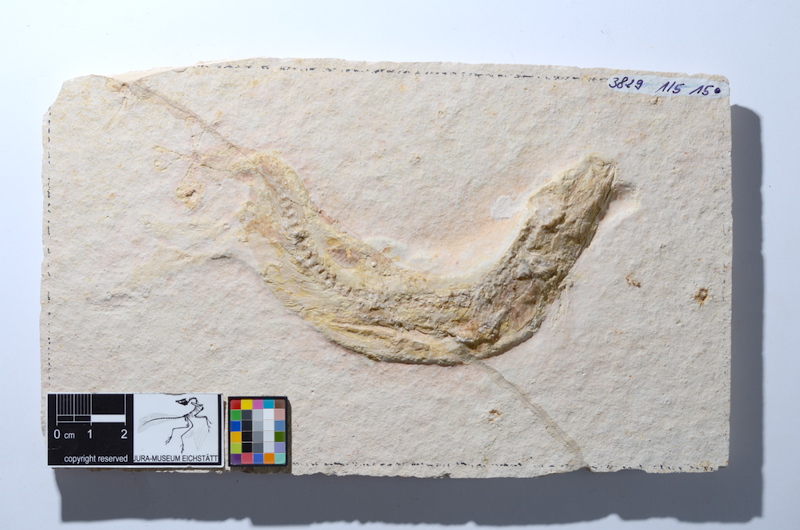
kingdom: Animalia
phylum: Chordata
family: Ascalaboidae
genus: Tharsis
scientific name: Tharsis dubius
